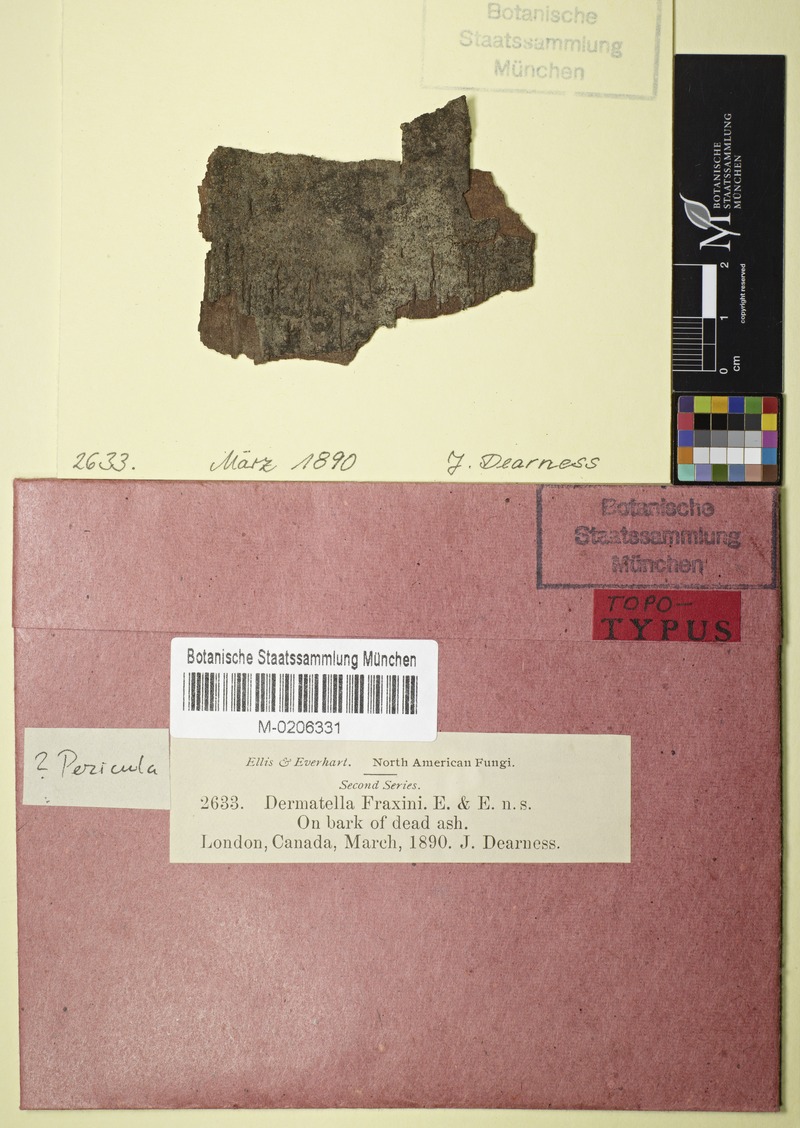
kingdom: Fungi
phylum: Ascomycota
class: Leotiomycetes
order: Helotiales
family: Dermateaceae
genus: Pezicula
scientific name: Pezicula carpinea
